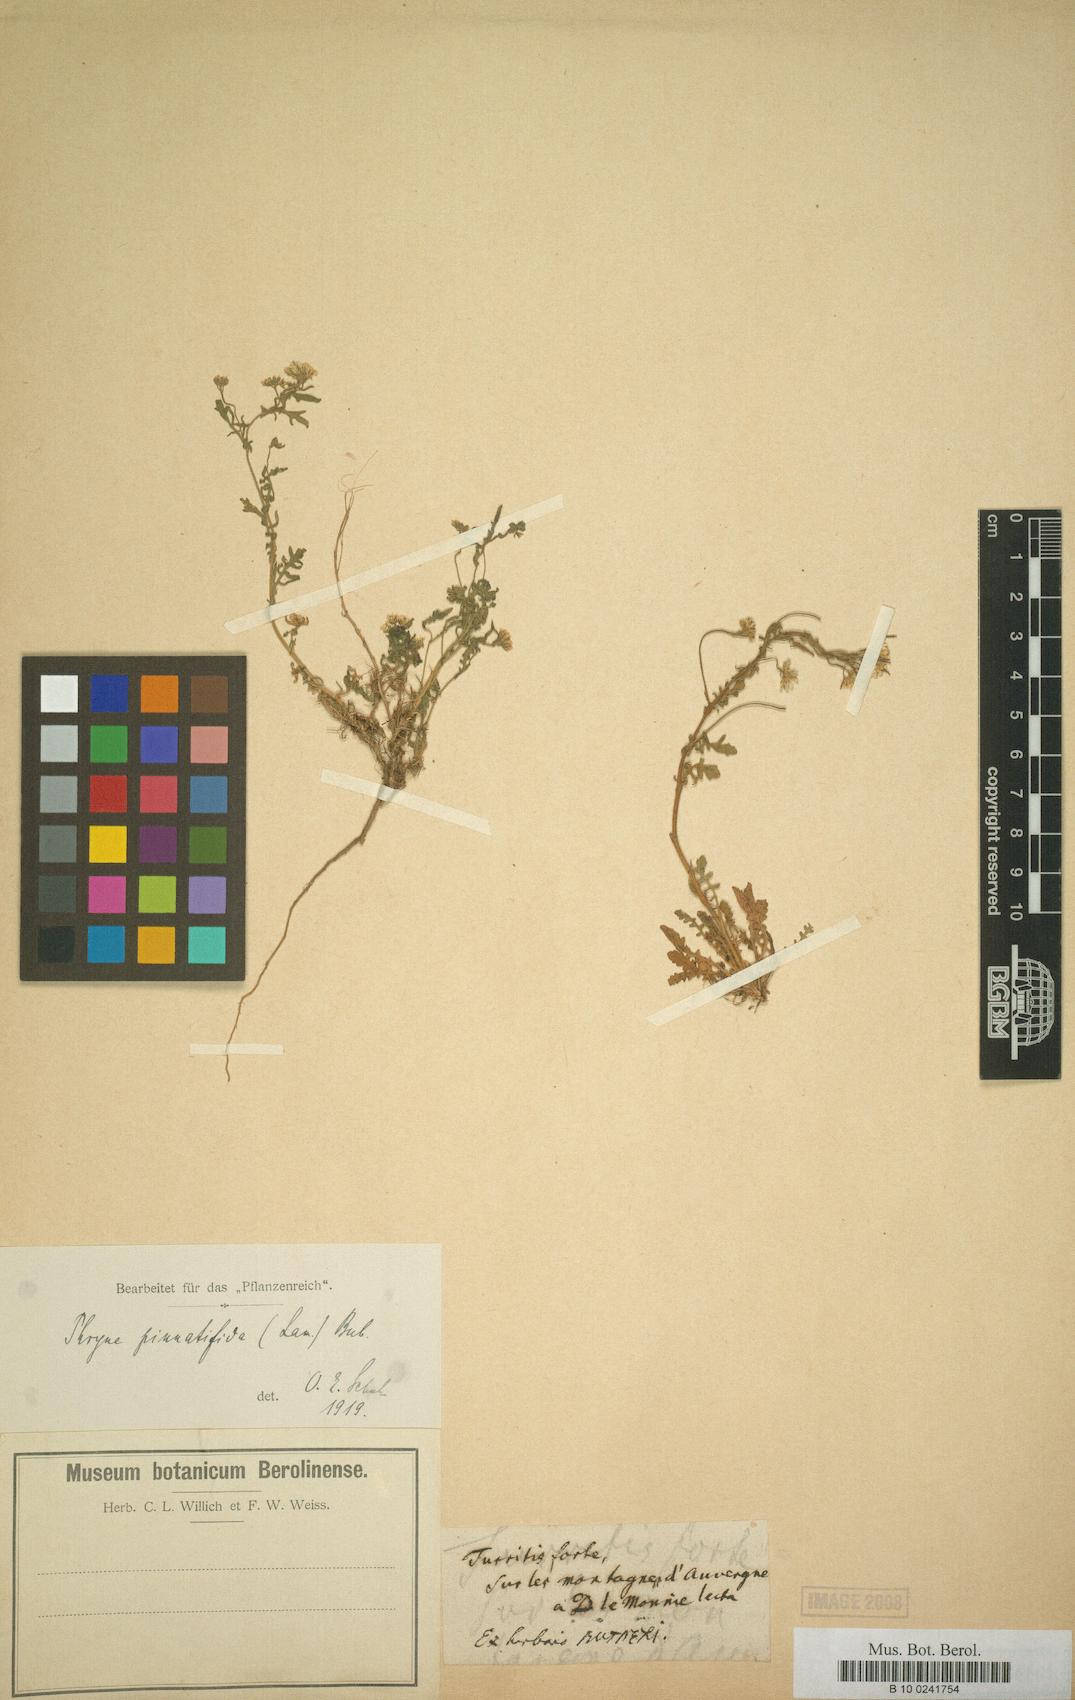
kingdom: Plantae
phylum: Tracheophyta
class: Magnoliopsida
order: Brassicales
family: Brassicaceae
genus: Murbeckiella
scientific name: Murbeckiella pinnatifida
